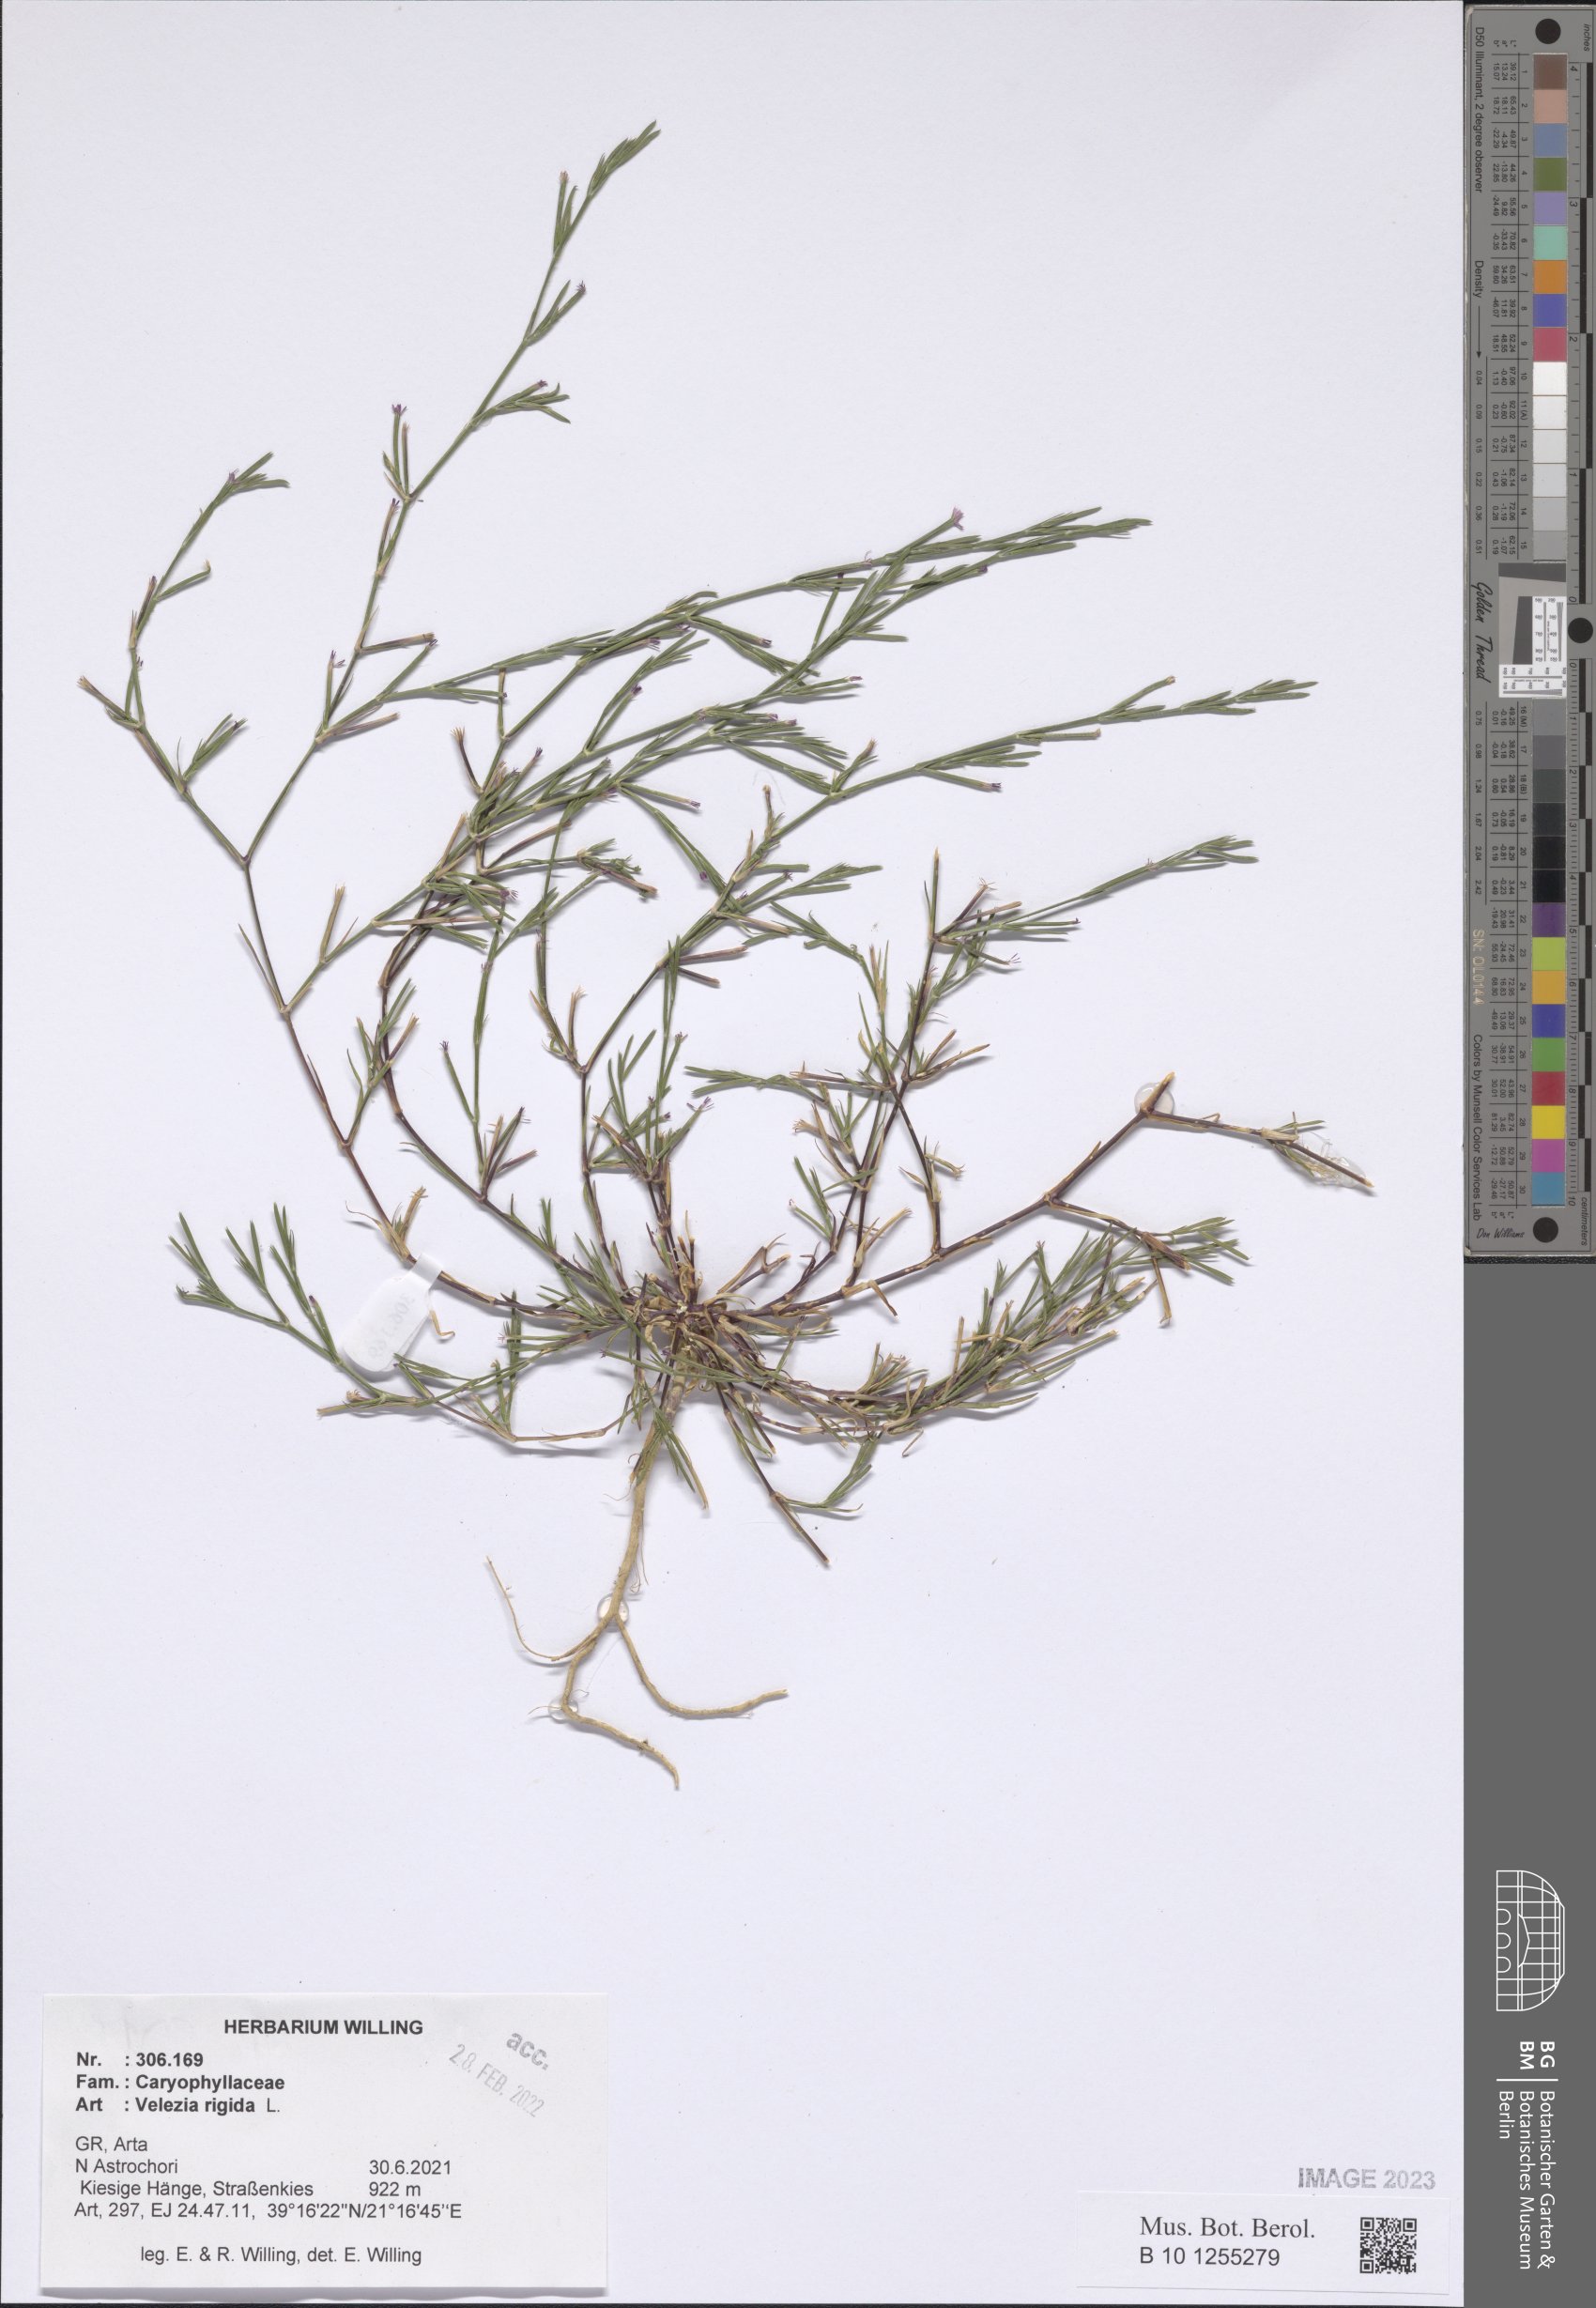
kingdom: Plantae
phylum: Tracheophyta
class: Magnoliopsida
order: Caryophyllales
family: Caryophyllaceae
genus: Dianthus
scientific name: Dianthus nudiflorus
